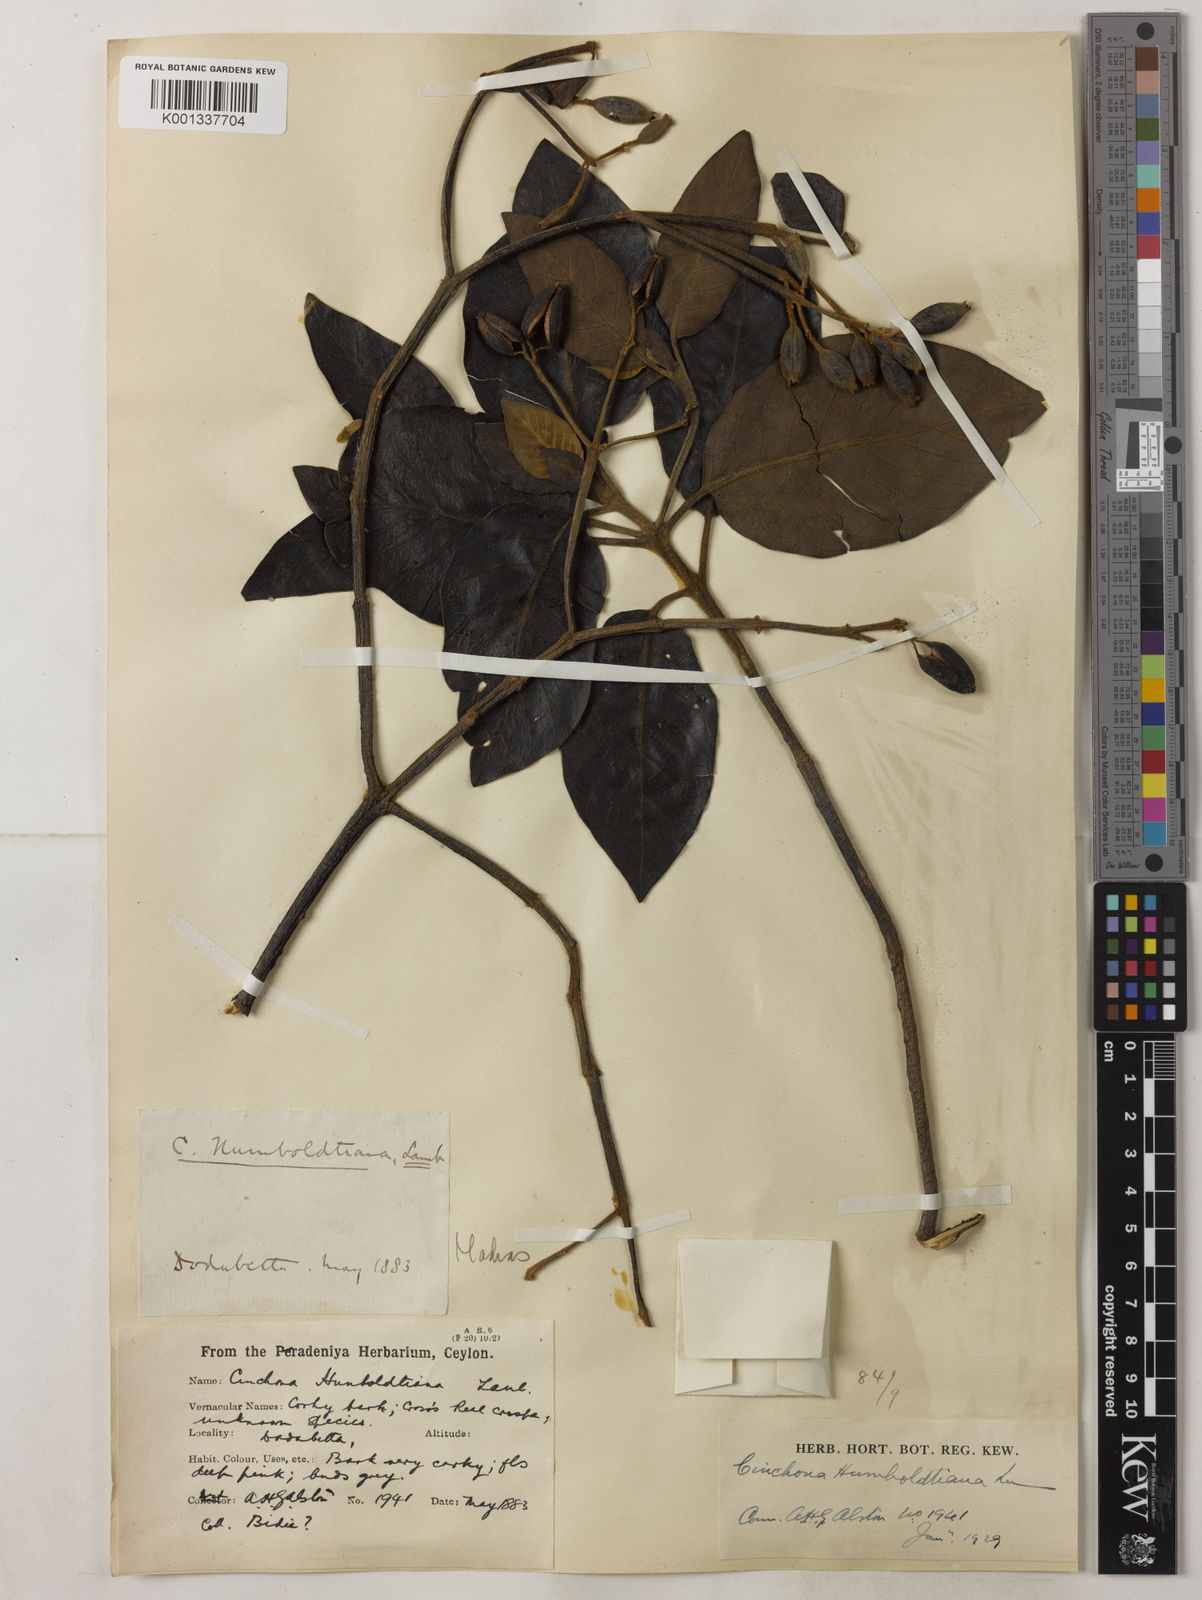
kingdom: Plantae
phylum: Tracheophyta
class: Magnoliopsida
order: Gentianales
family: Rubiaceae
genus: Cinchona
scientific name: Cinchona
